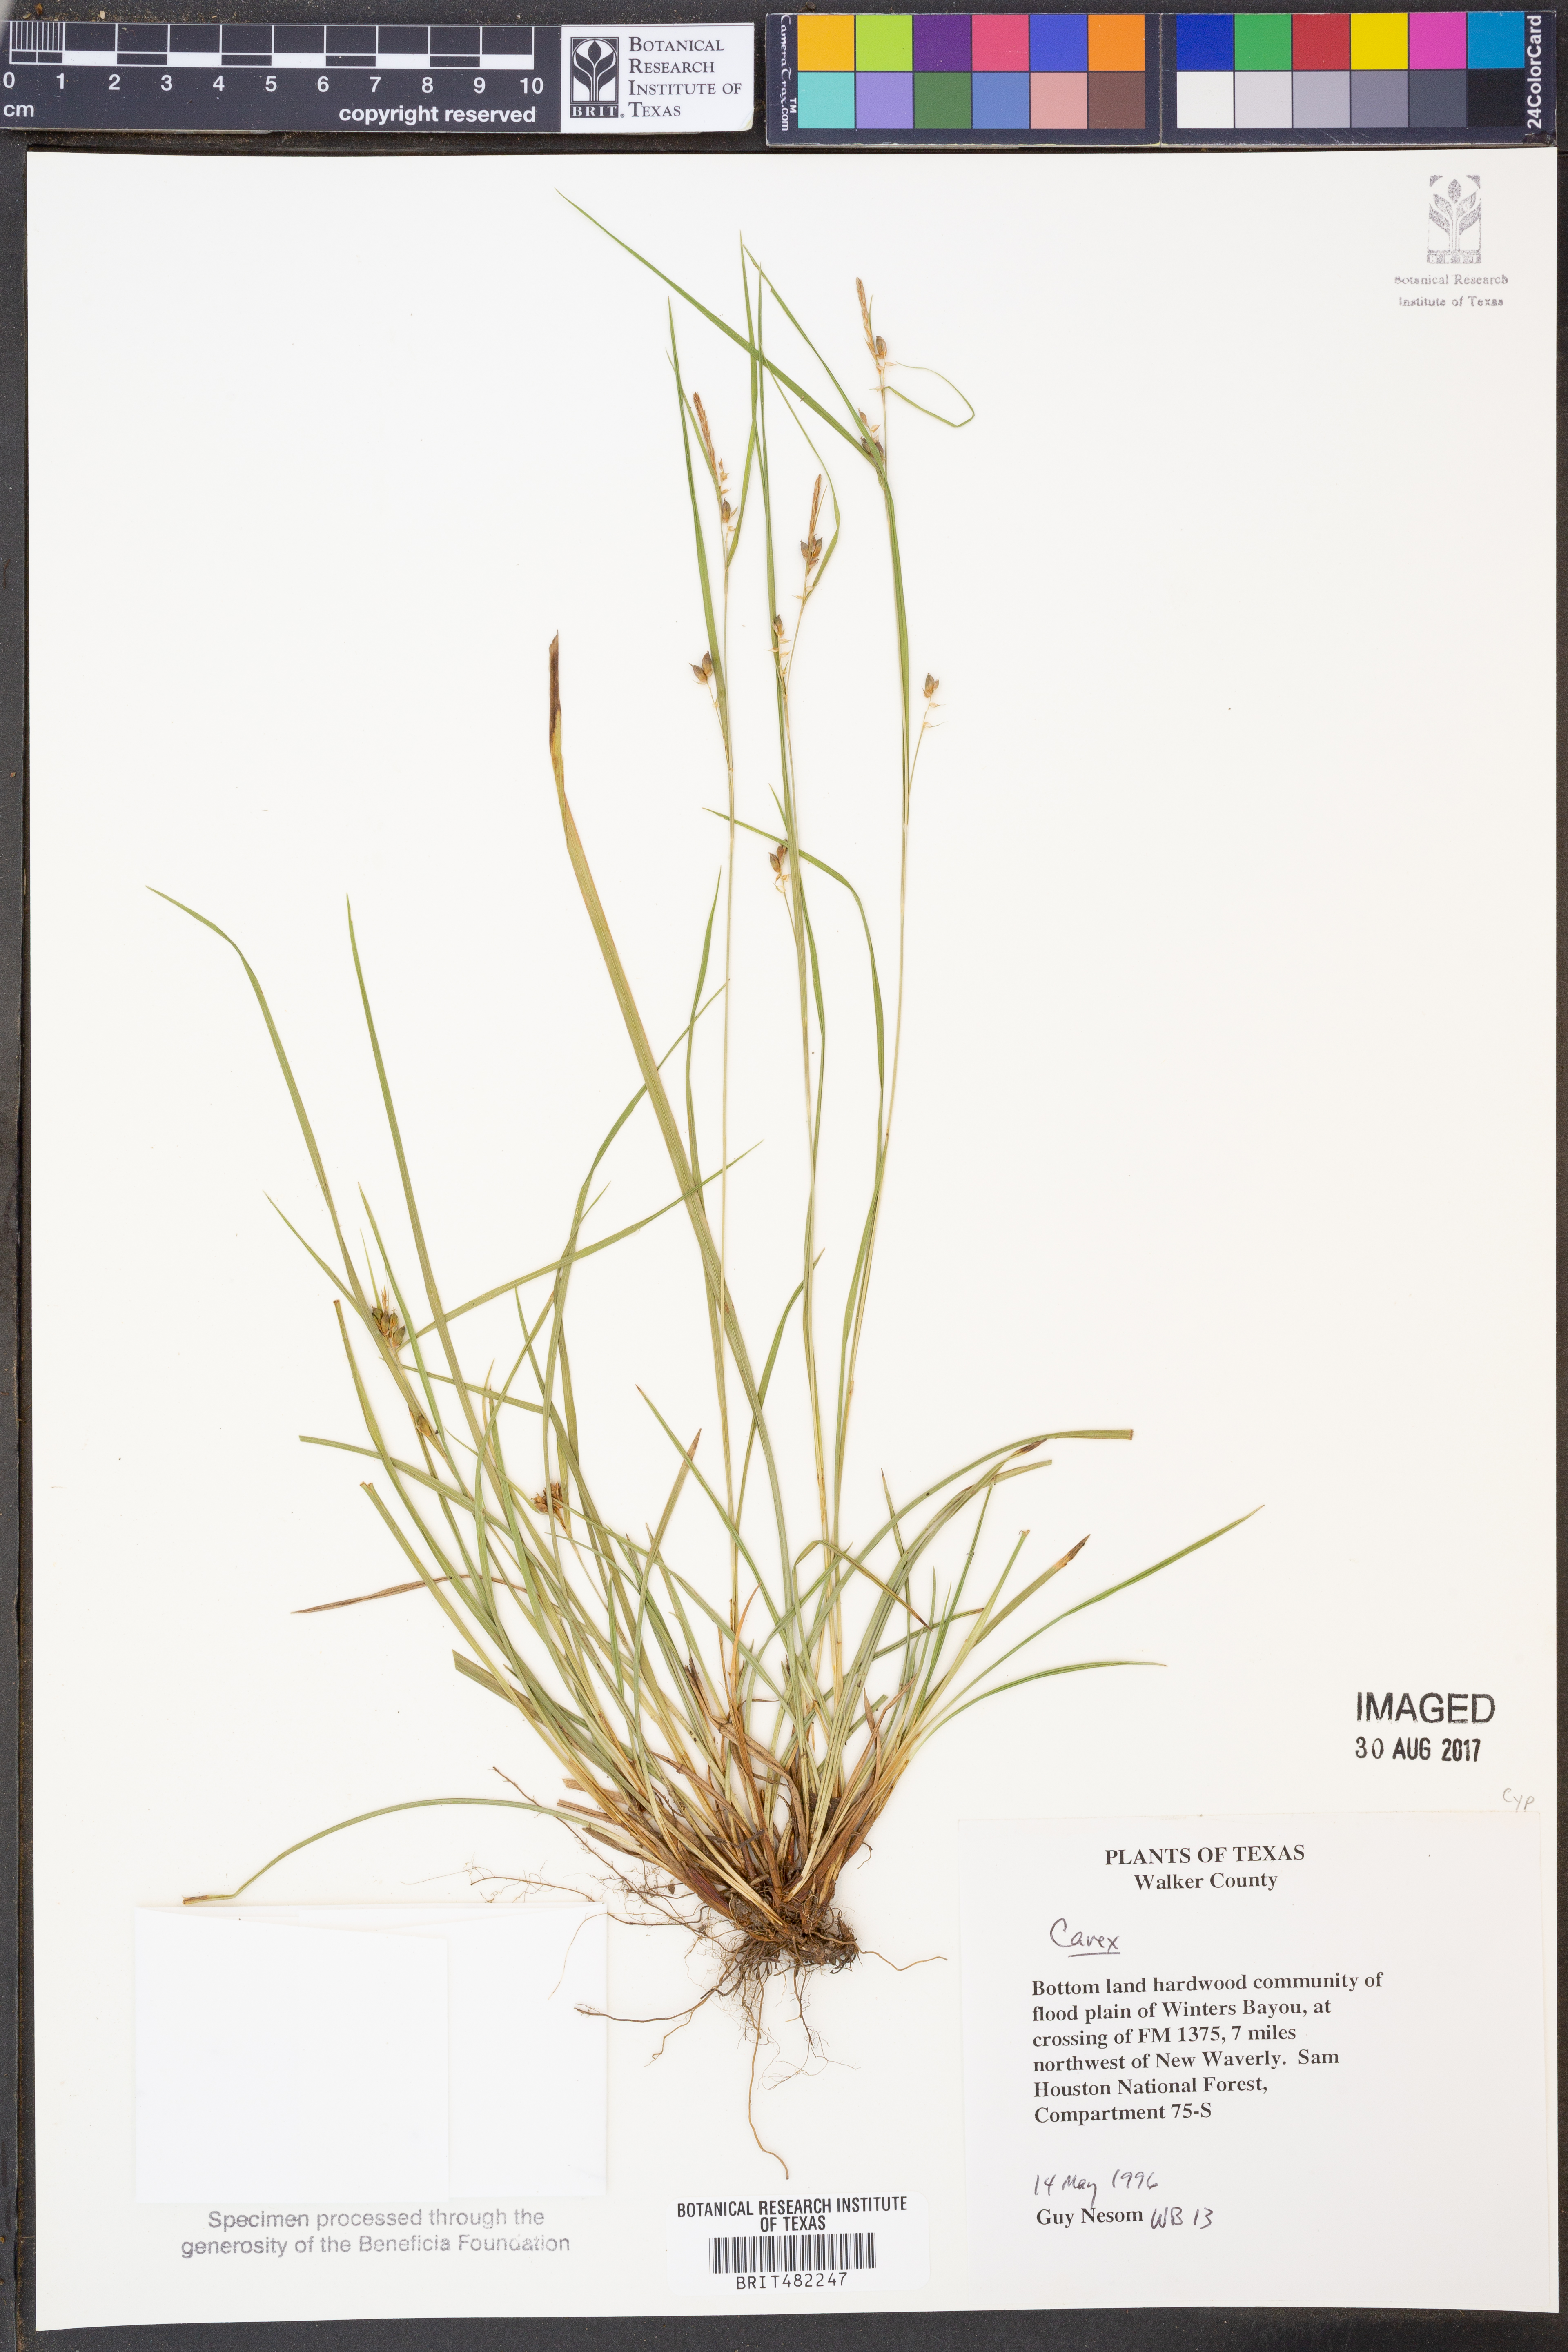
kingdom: Plantae
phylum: Tracheophyta
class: Liliopsida
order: Poales
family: Cyperaceae
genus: Carex
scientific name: Carex
